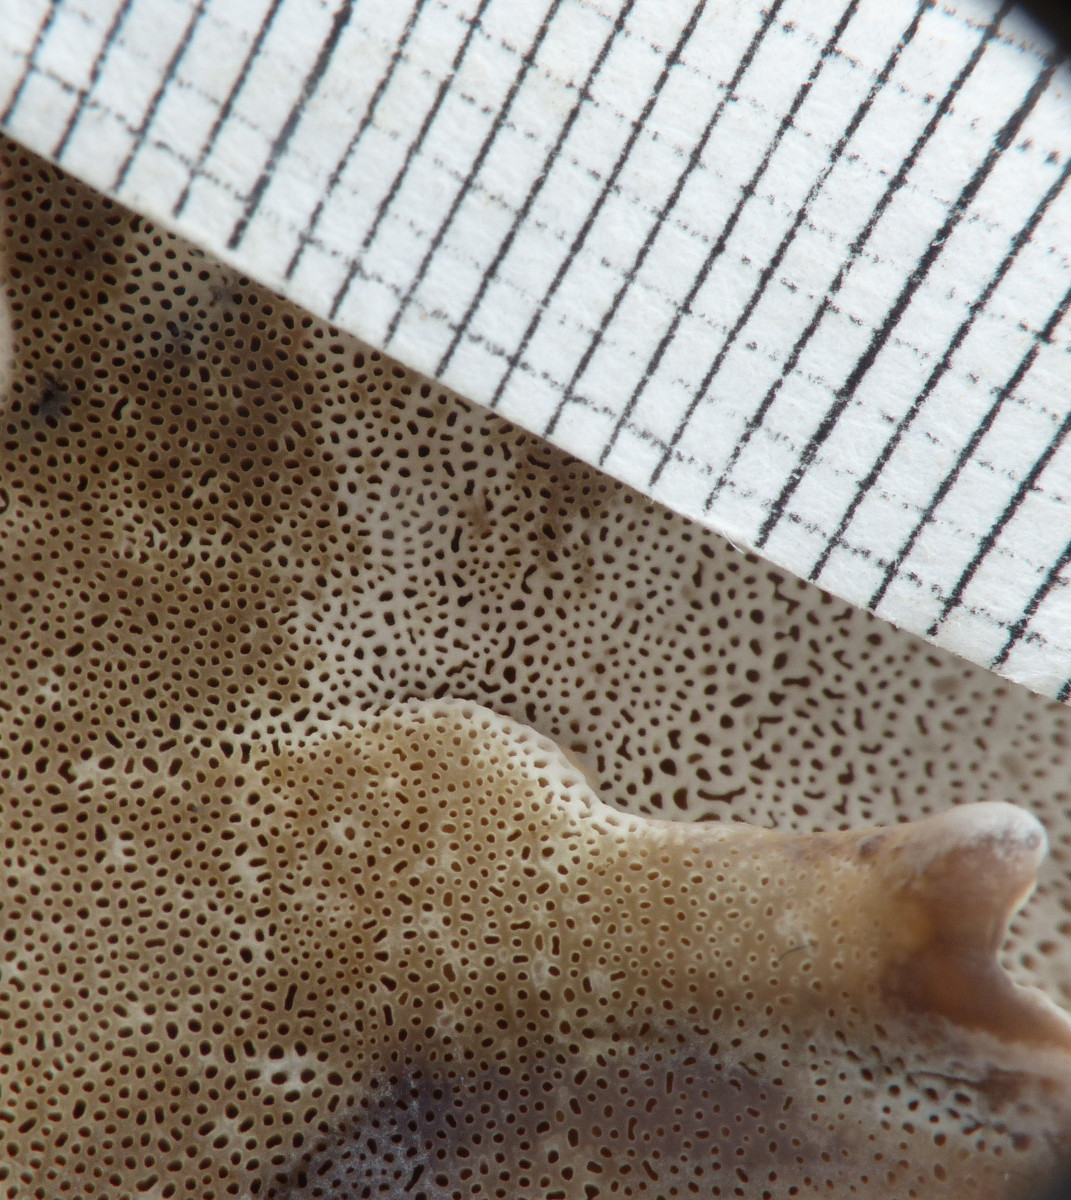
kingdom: Fungi
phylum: Basidiomycota
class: Agaricomycetes
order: Polyporales
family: Phanerochaetaceae
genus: Bjerkandera
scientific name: Bjerkandera fumosa
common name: grågul sodporesvamp
